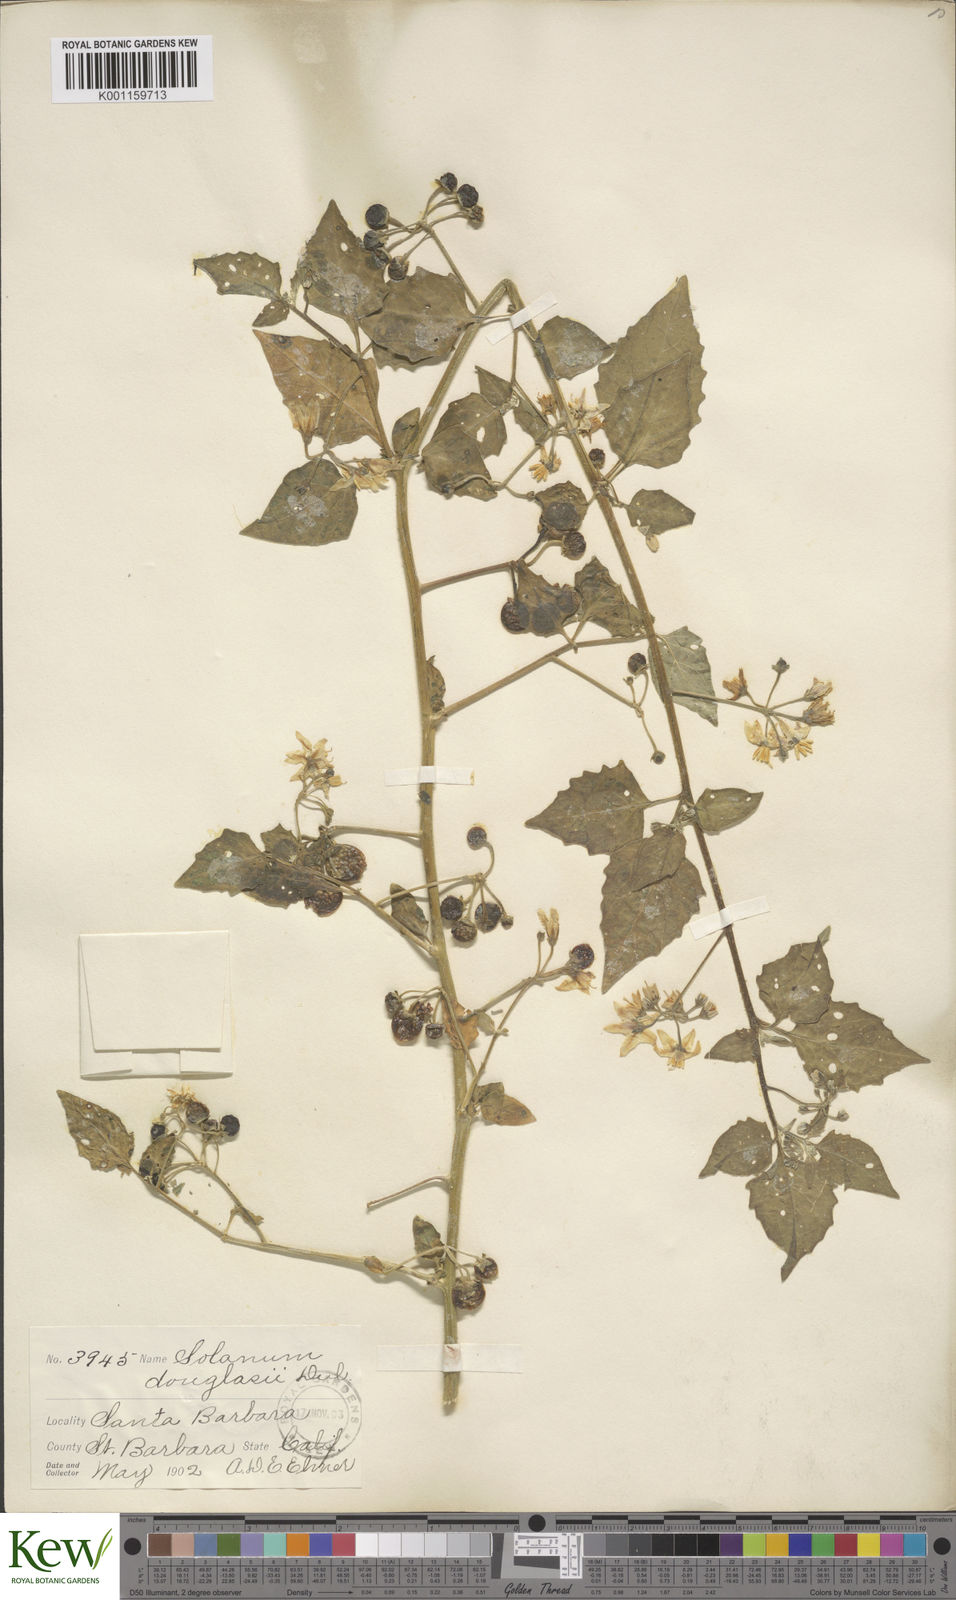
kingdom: Plantae
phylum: Tracheophyta
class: Magnoliopsida
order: Solanales
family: Solanaceae
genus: Solanum
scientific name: Solanum douglasii
